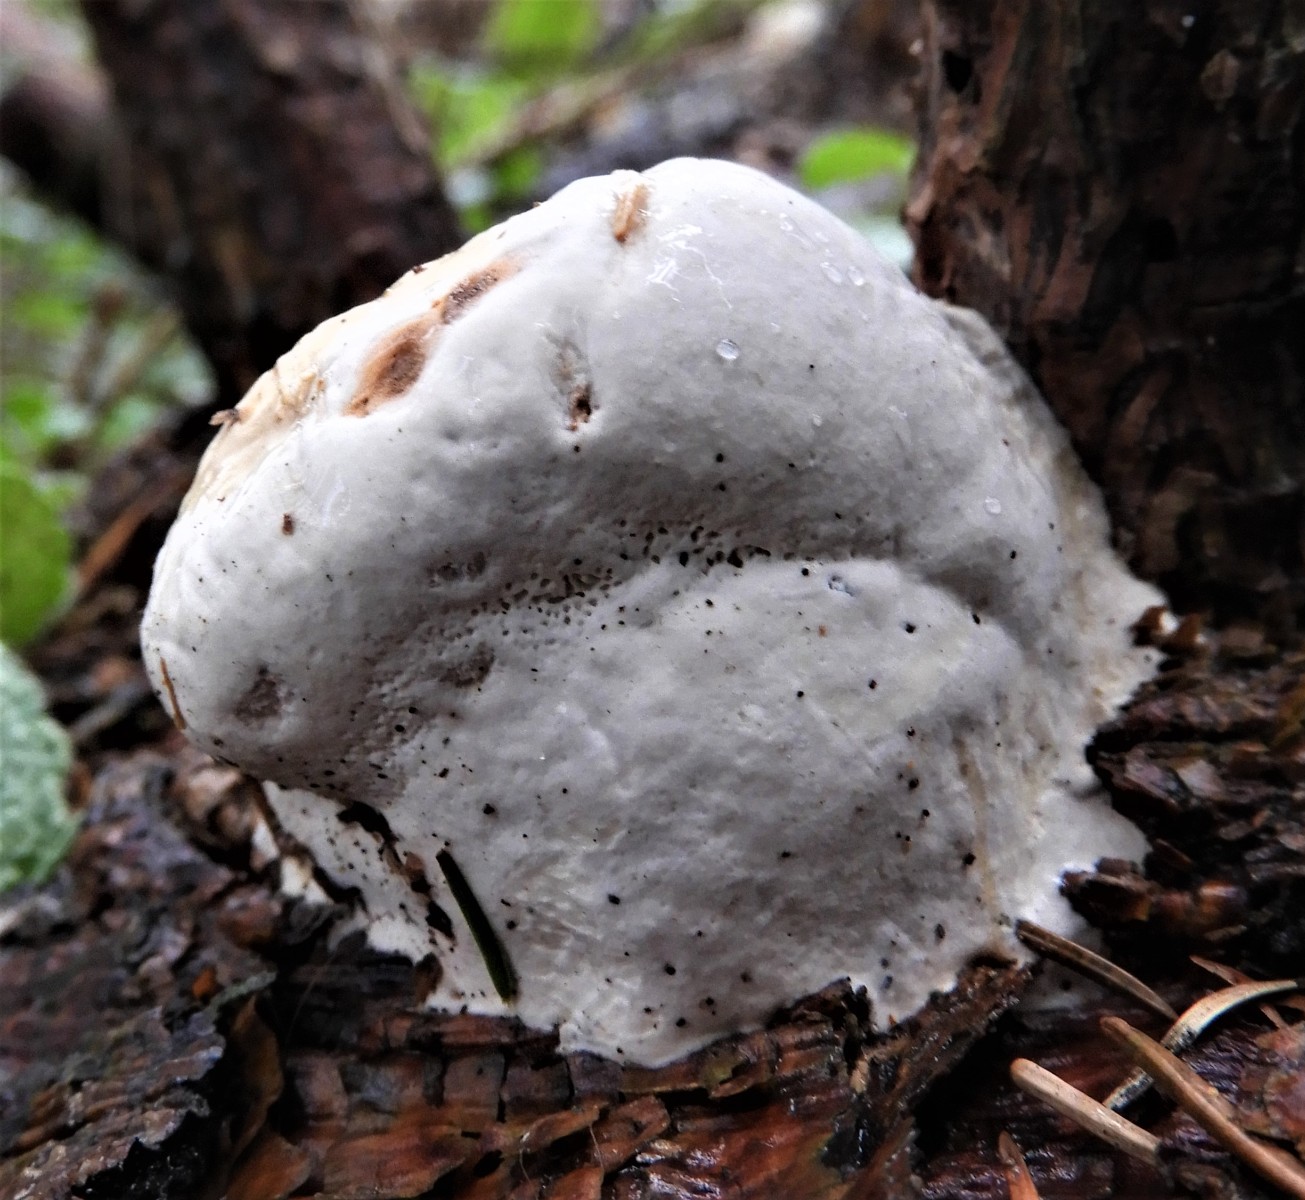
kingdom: Fungi
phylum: Basidiomycota
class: Agaricomycetes
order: Polyporales
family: Fomitopsidaceae
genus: Fomitopsis
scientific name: Fomitopsis pinicola
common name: randbæltet hovporesvamp
